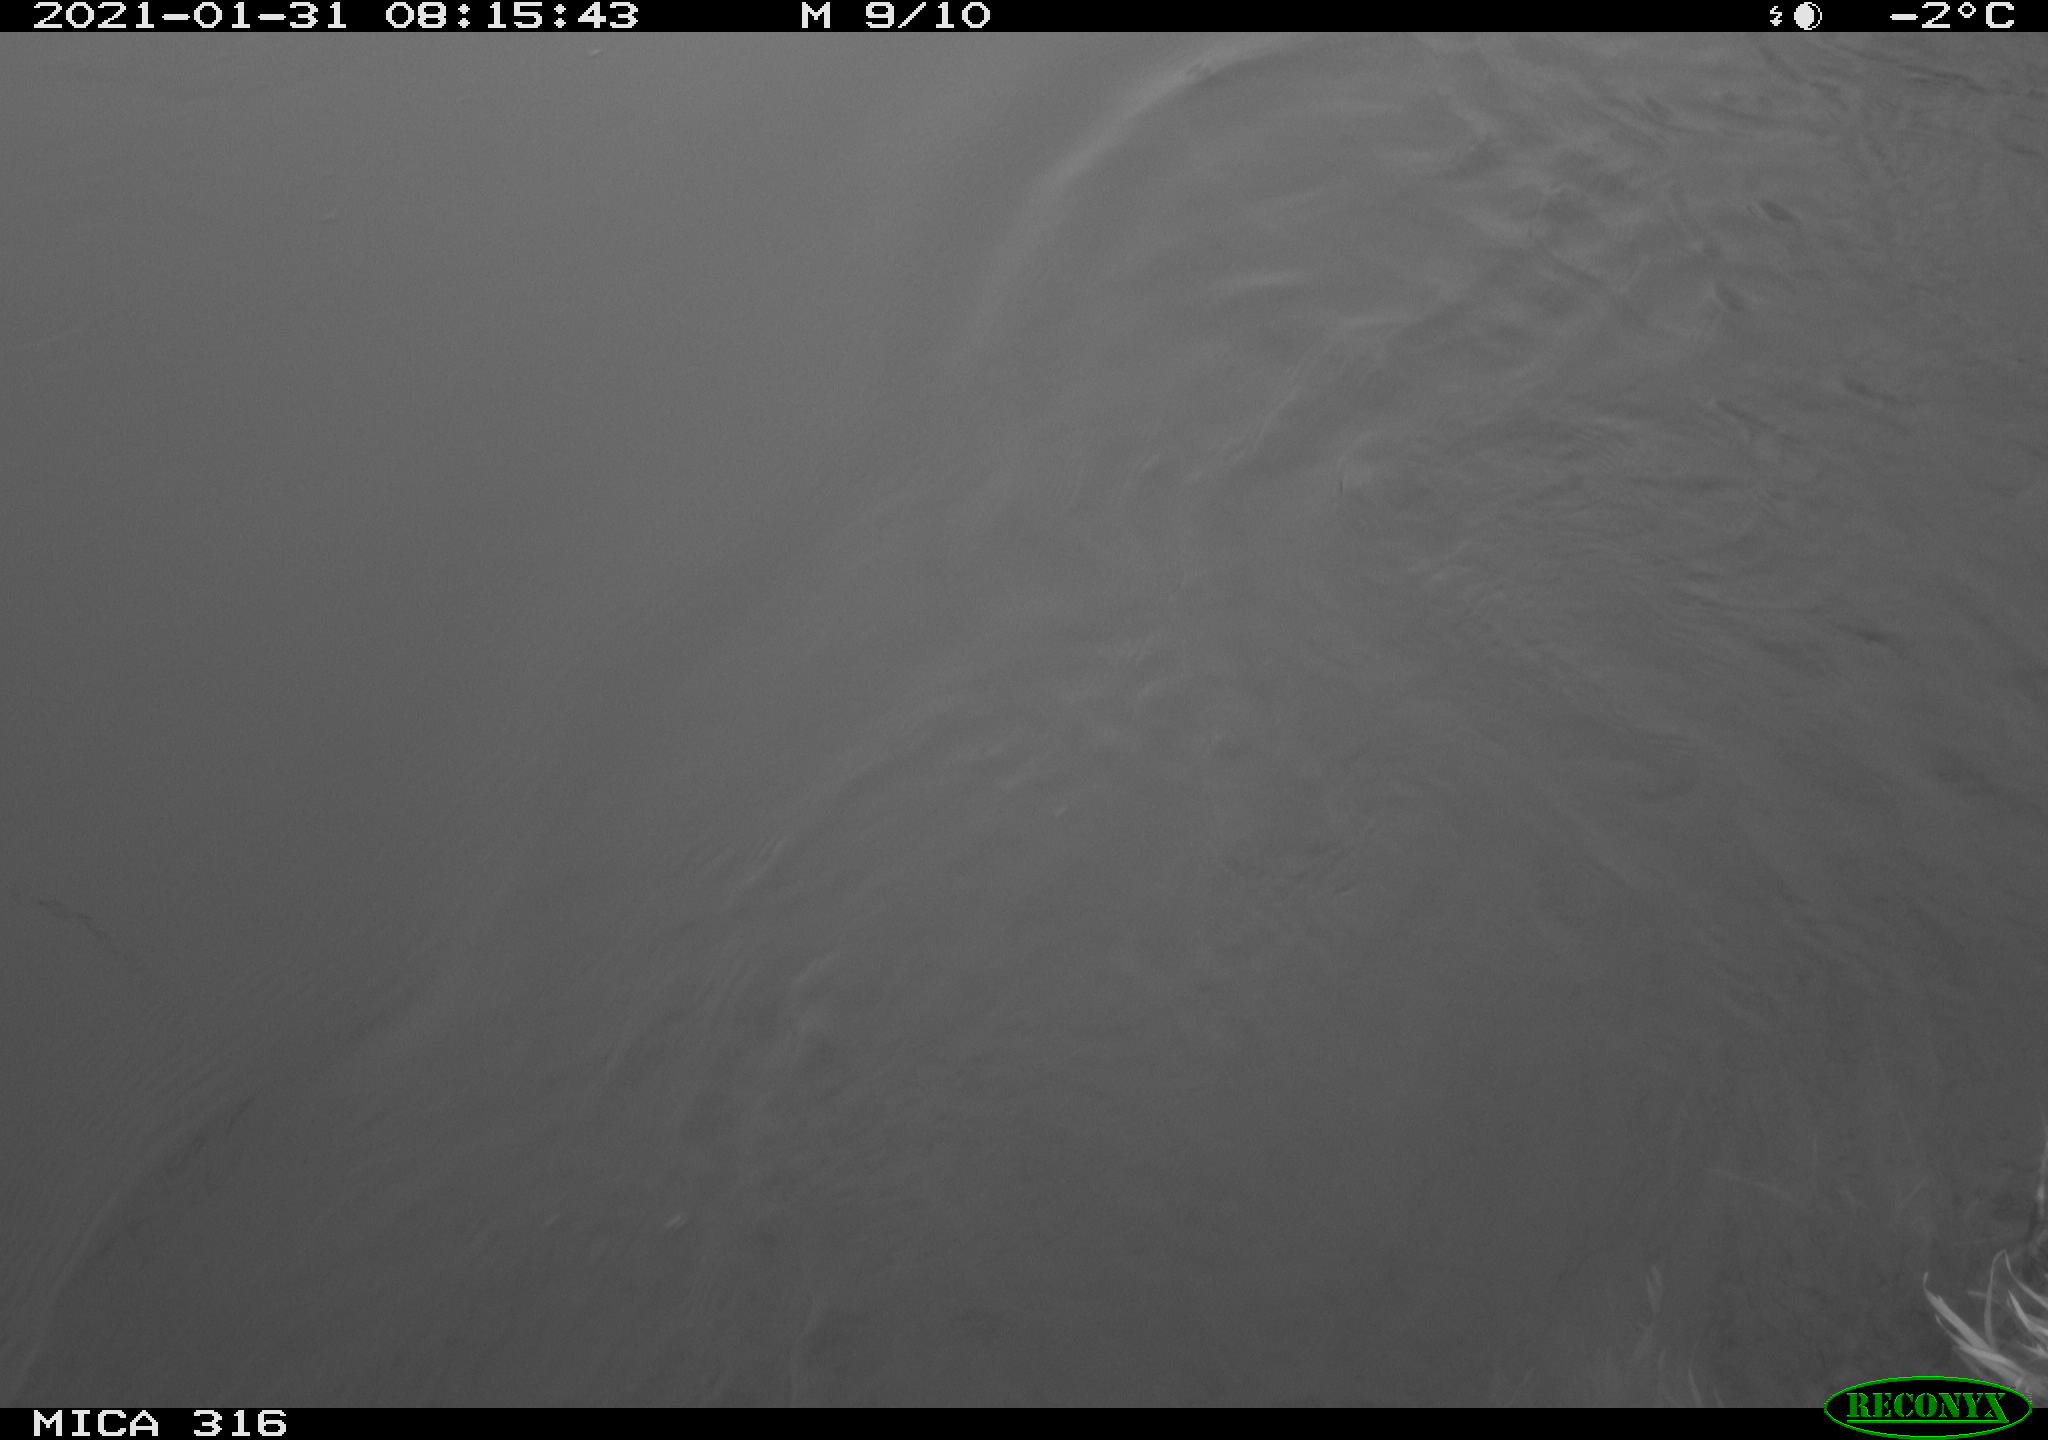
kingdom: Animalia
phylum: Chordata
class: Aves
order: Gruiformes
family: Rallidae
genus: Fulica
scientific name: Fulica atra
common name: Eurasian coot
